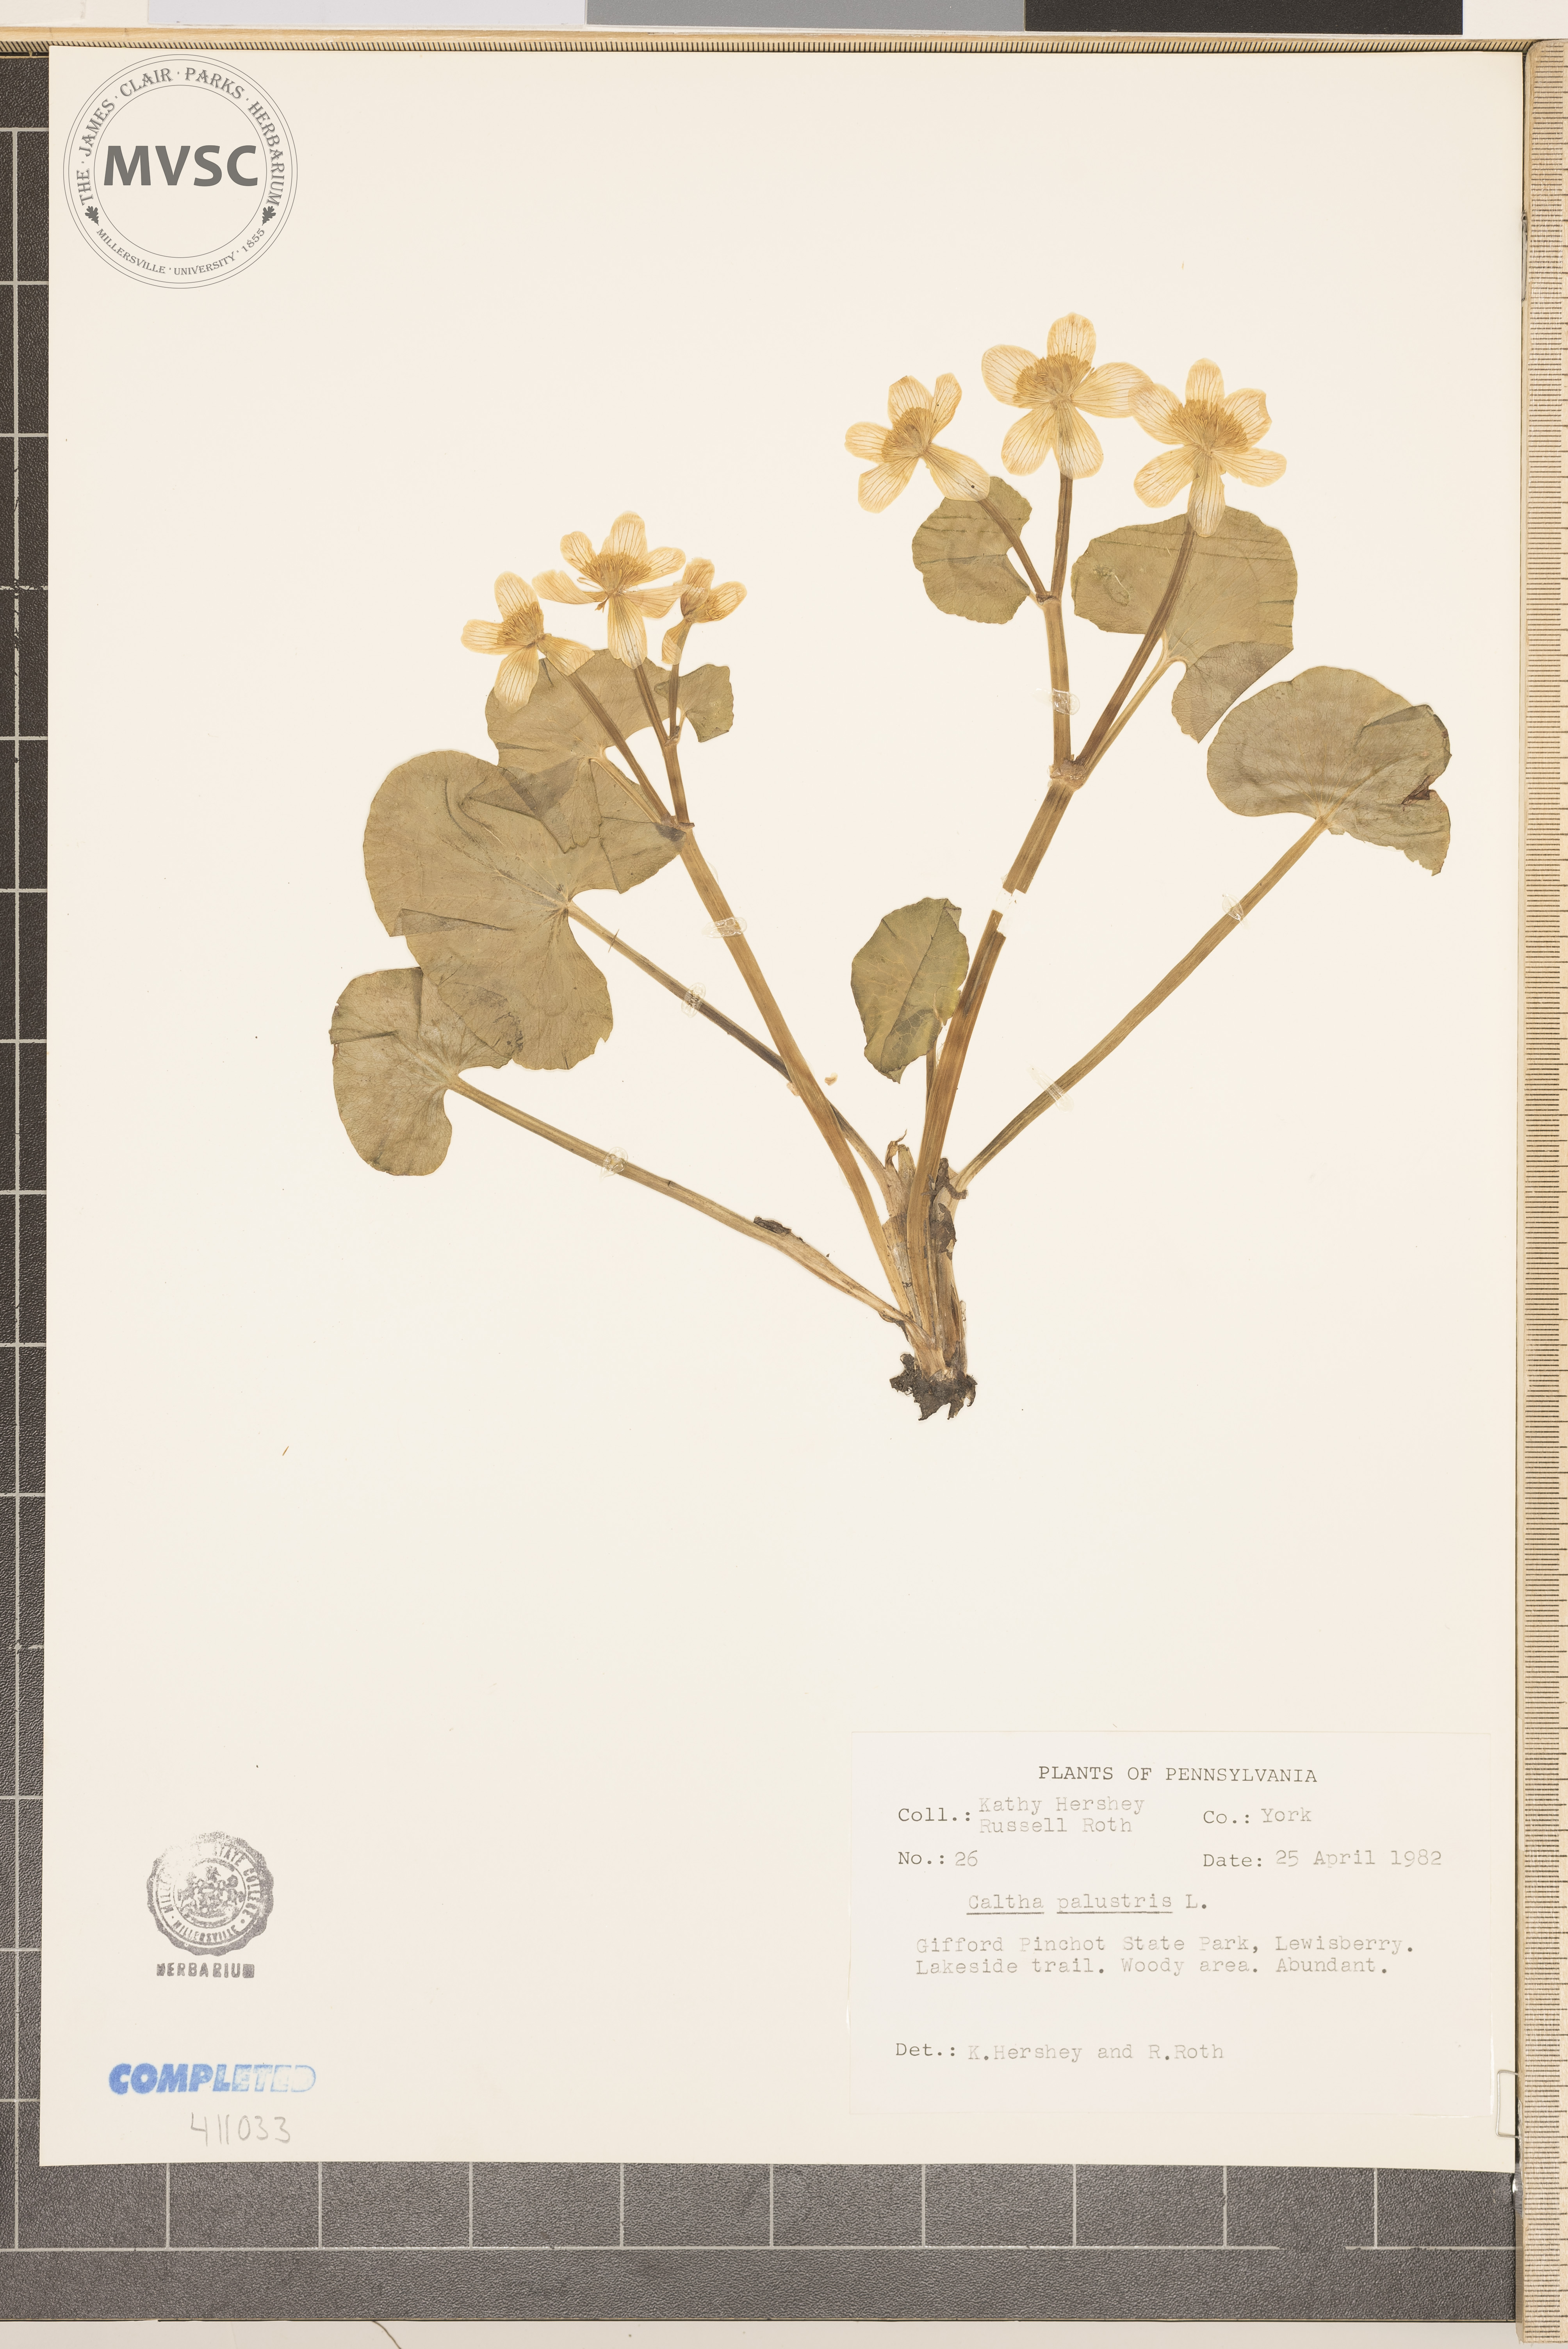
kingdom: Plantae
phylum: Tracheophyta
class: Magnoliopsida
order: Ranunculales
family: Ranunculaceae
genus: Caltha
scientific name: Caltha palustris
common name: Marsh marigold
